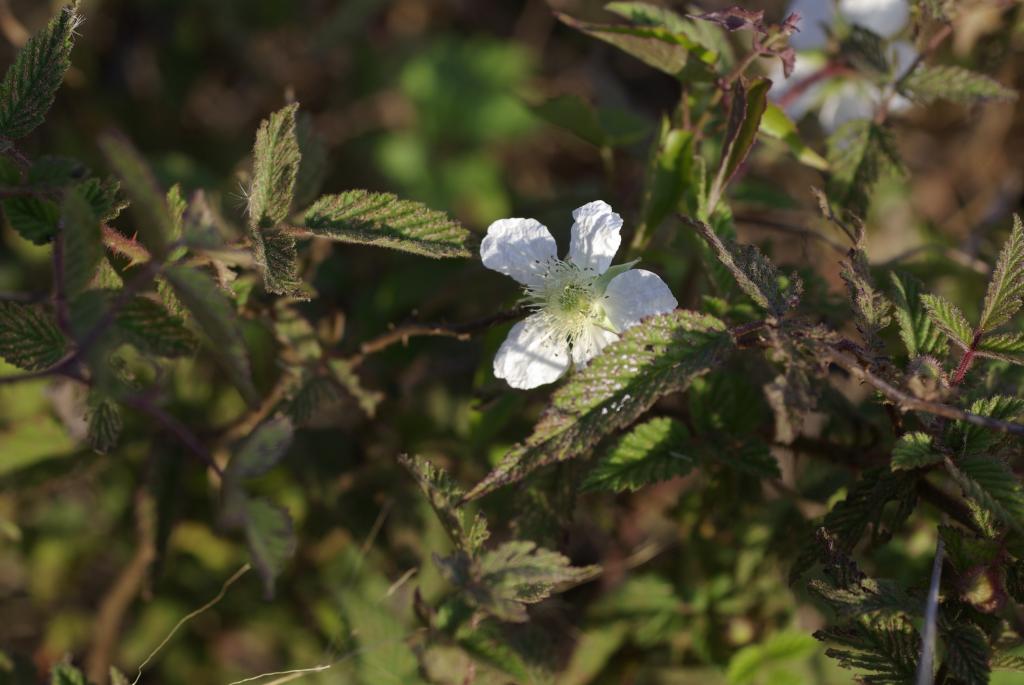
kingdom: Plantae
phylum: Tracheophyta
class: Magnoliopsida
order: Rosales
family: Rosaceae
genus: Rubus
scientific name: Rubus croceacanthus
